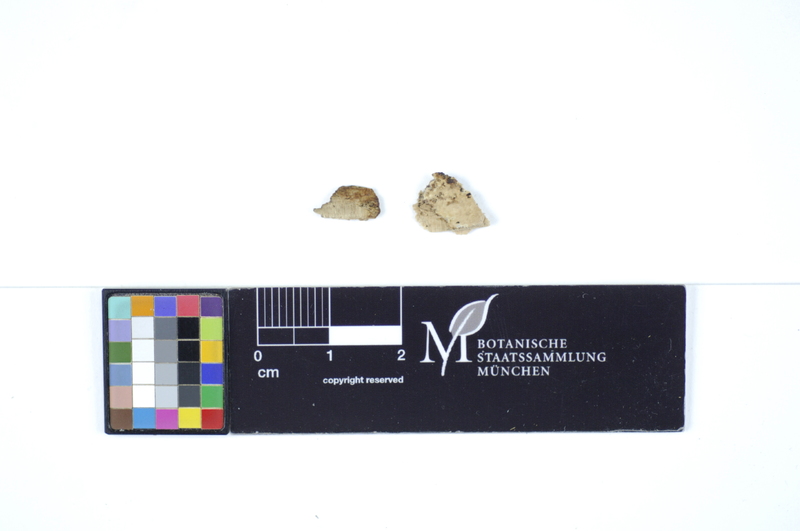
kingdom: Plantae
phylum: Tracheophyta
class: Magnoliopsida
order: Fagales
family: Betulaceae
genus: Carpinus
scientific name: Carpinus
